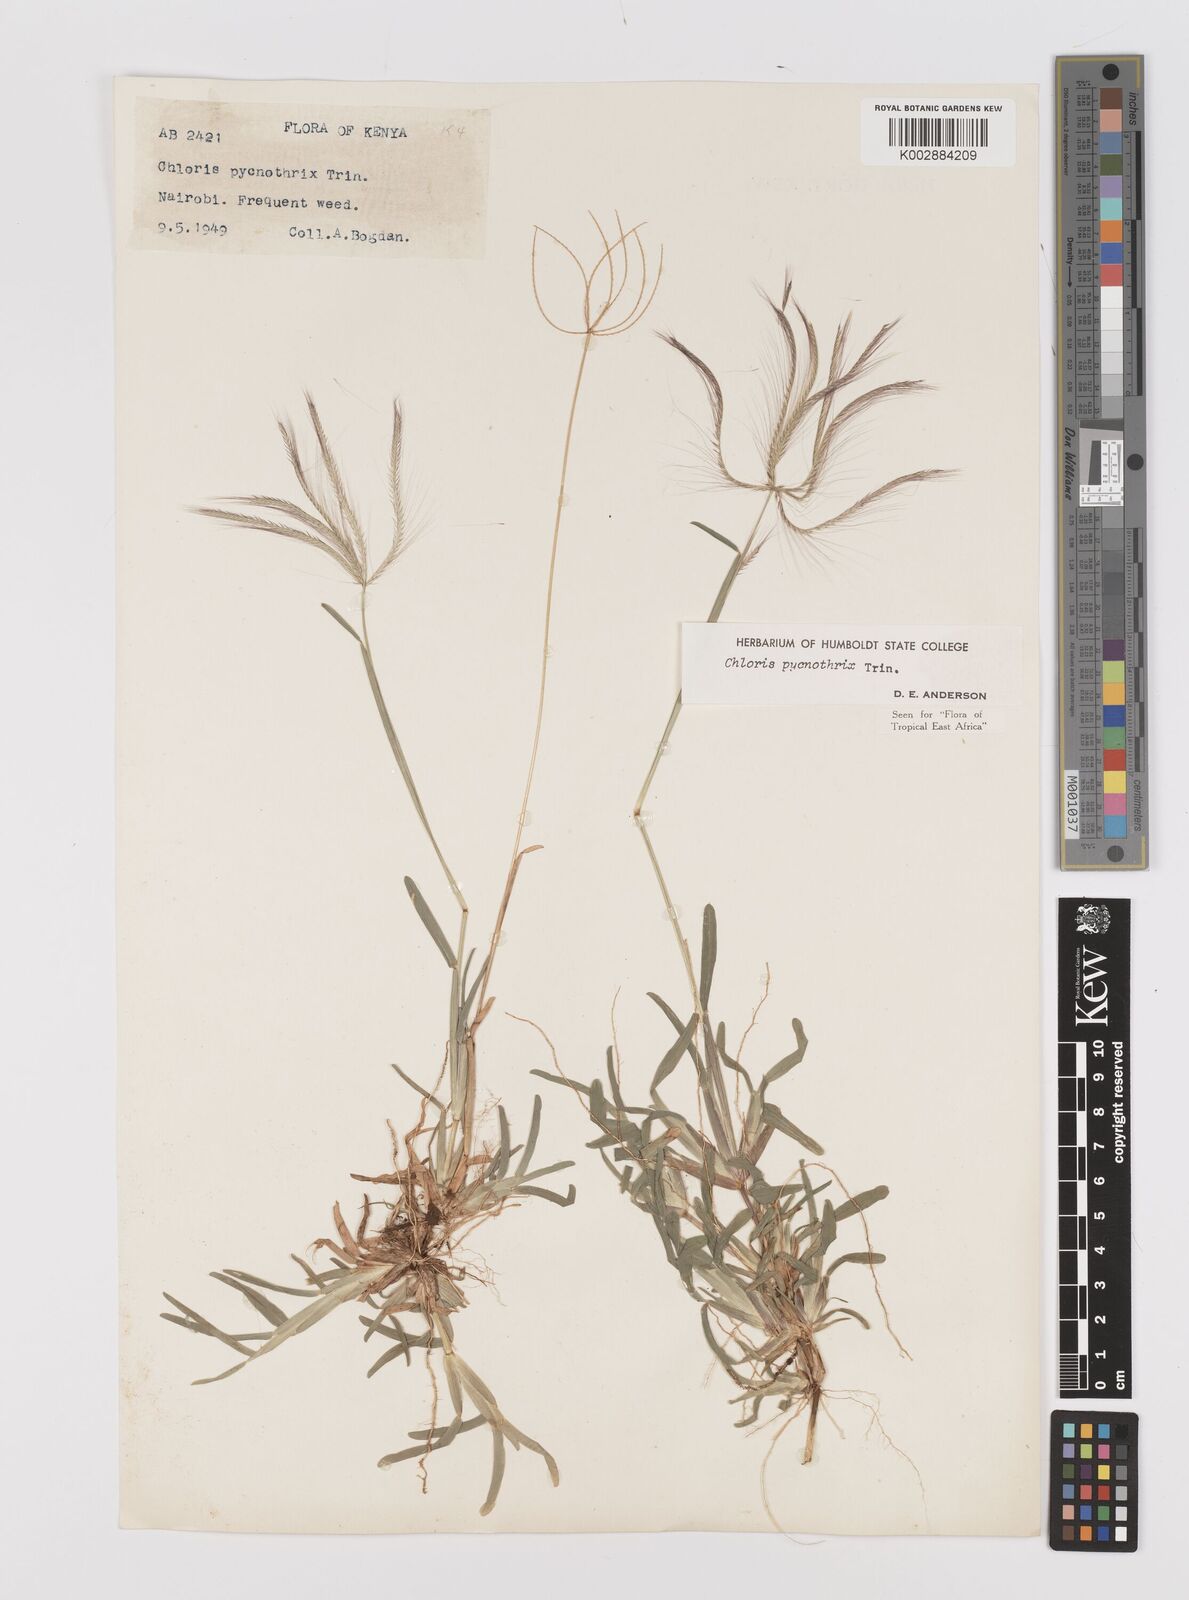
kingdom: Plantae
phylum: Tracheophyta
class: Liliopsida
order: Poales
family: Poaceae
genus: Chloris
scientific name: Chloris pycnothrix
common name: Spiderweb chloris
